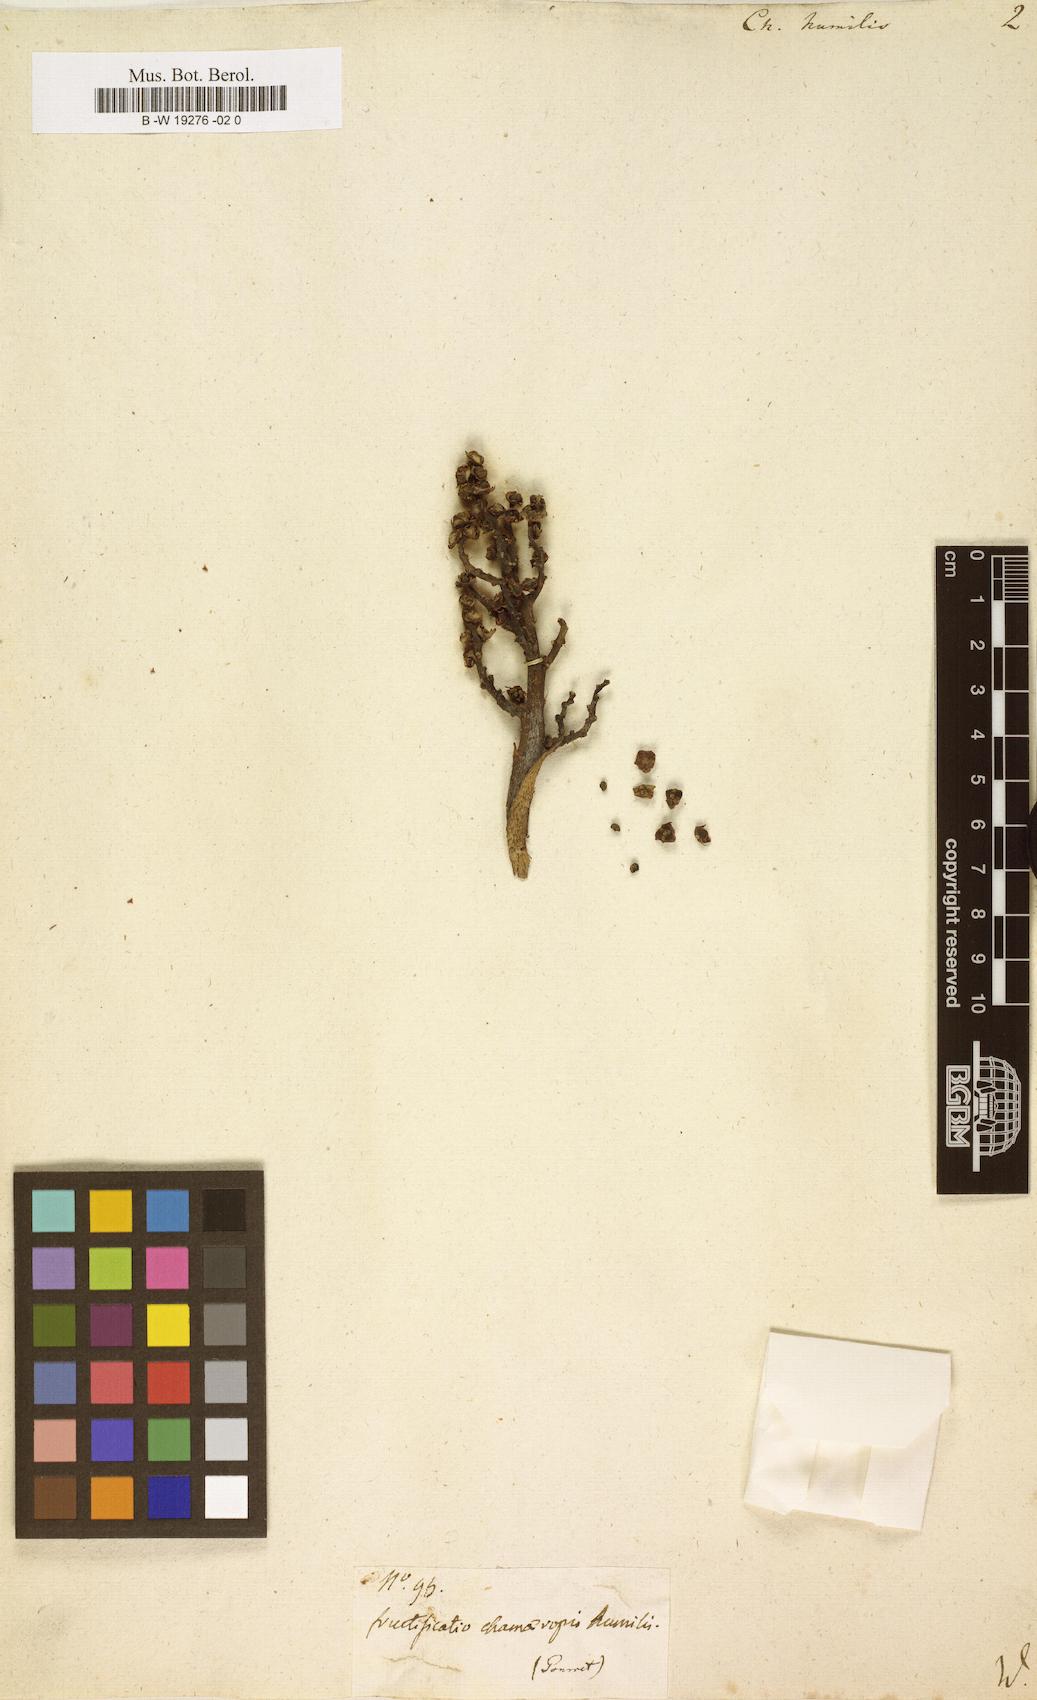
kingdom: Plantae
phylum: Tracheophyta
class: Liliopsida
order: Arecales
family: Arecaceae
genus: Chamaerops
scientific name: Chamaerops humilis
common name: Dwarf fan palm
